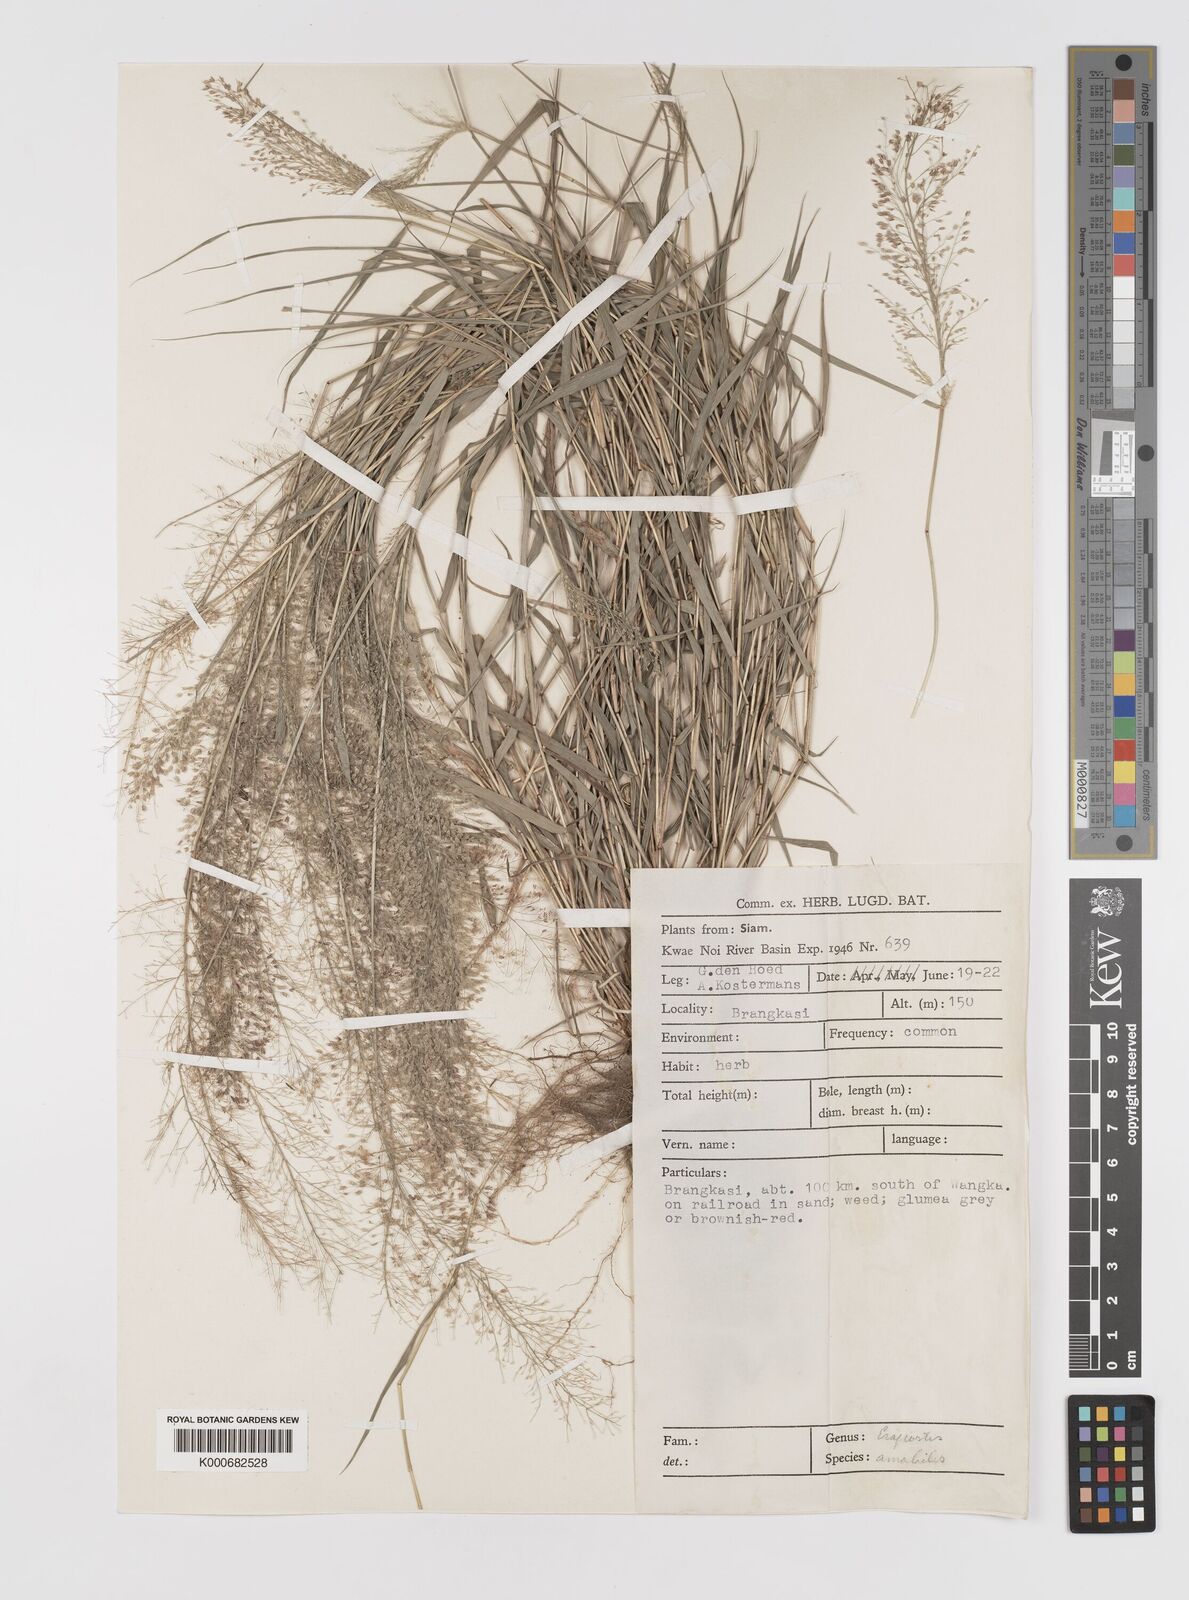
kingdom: Plantae
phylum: Tracheophyta
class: Liliopsida
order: Poales
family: Poaceae
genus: Eragrostis
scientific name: Eragrostis tenella
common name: Japanese lovegrass
